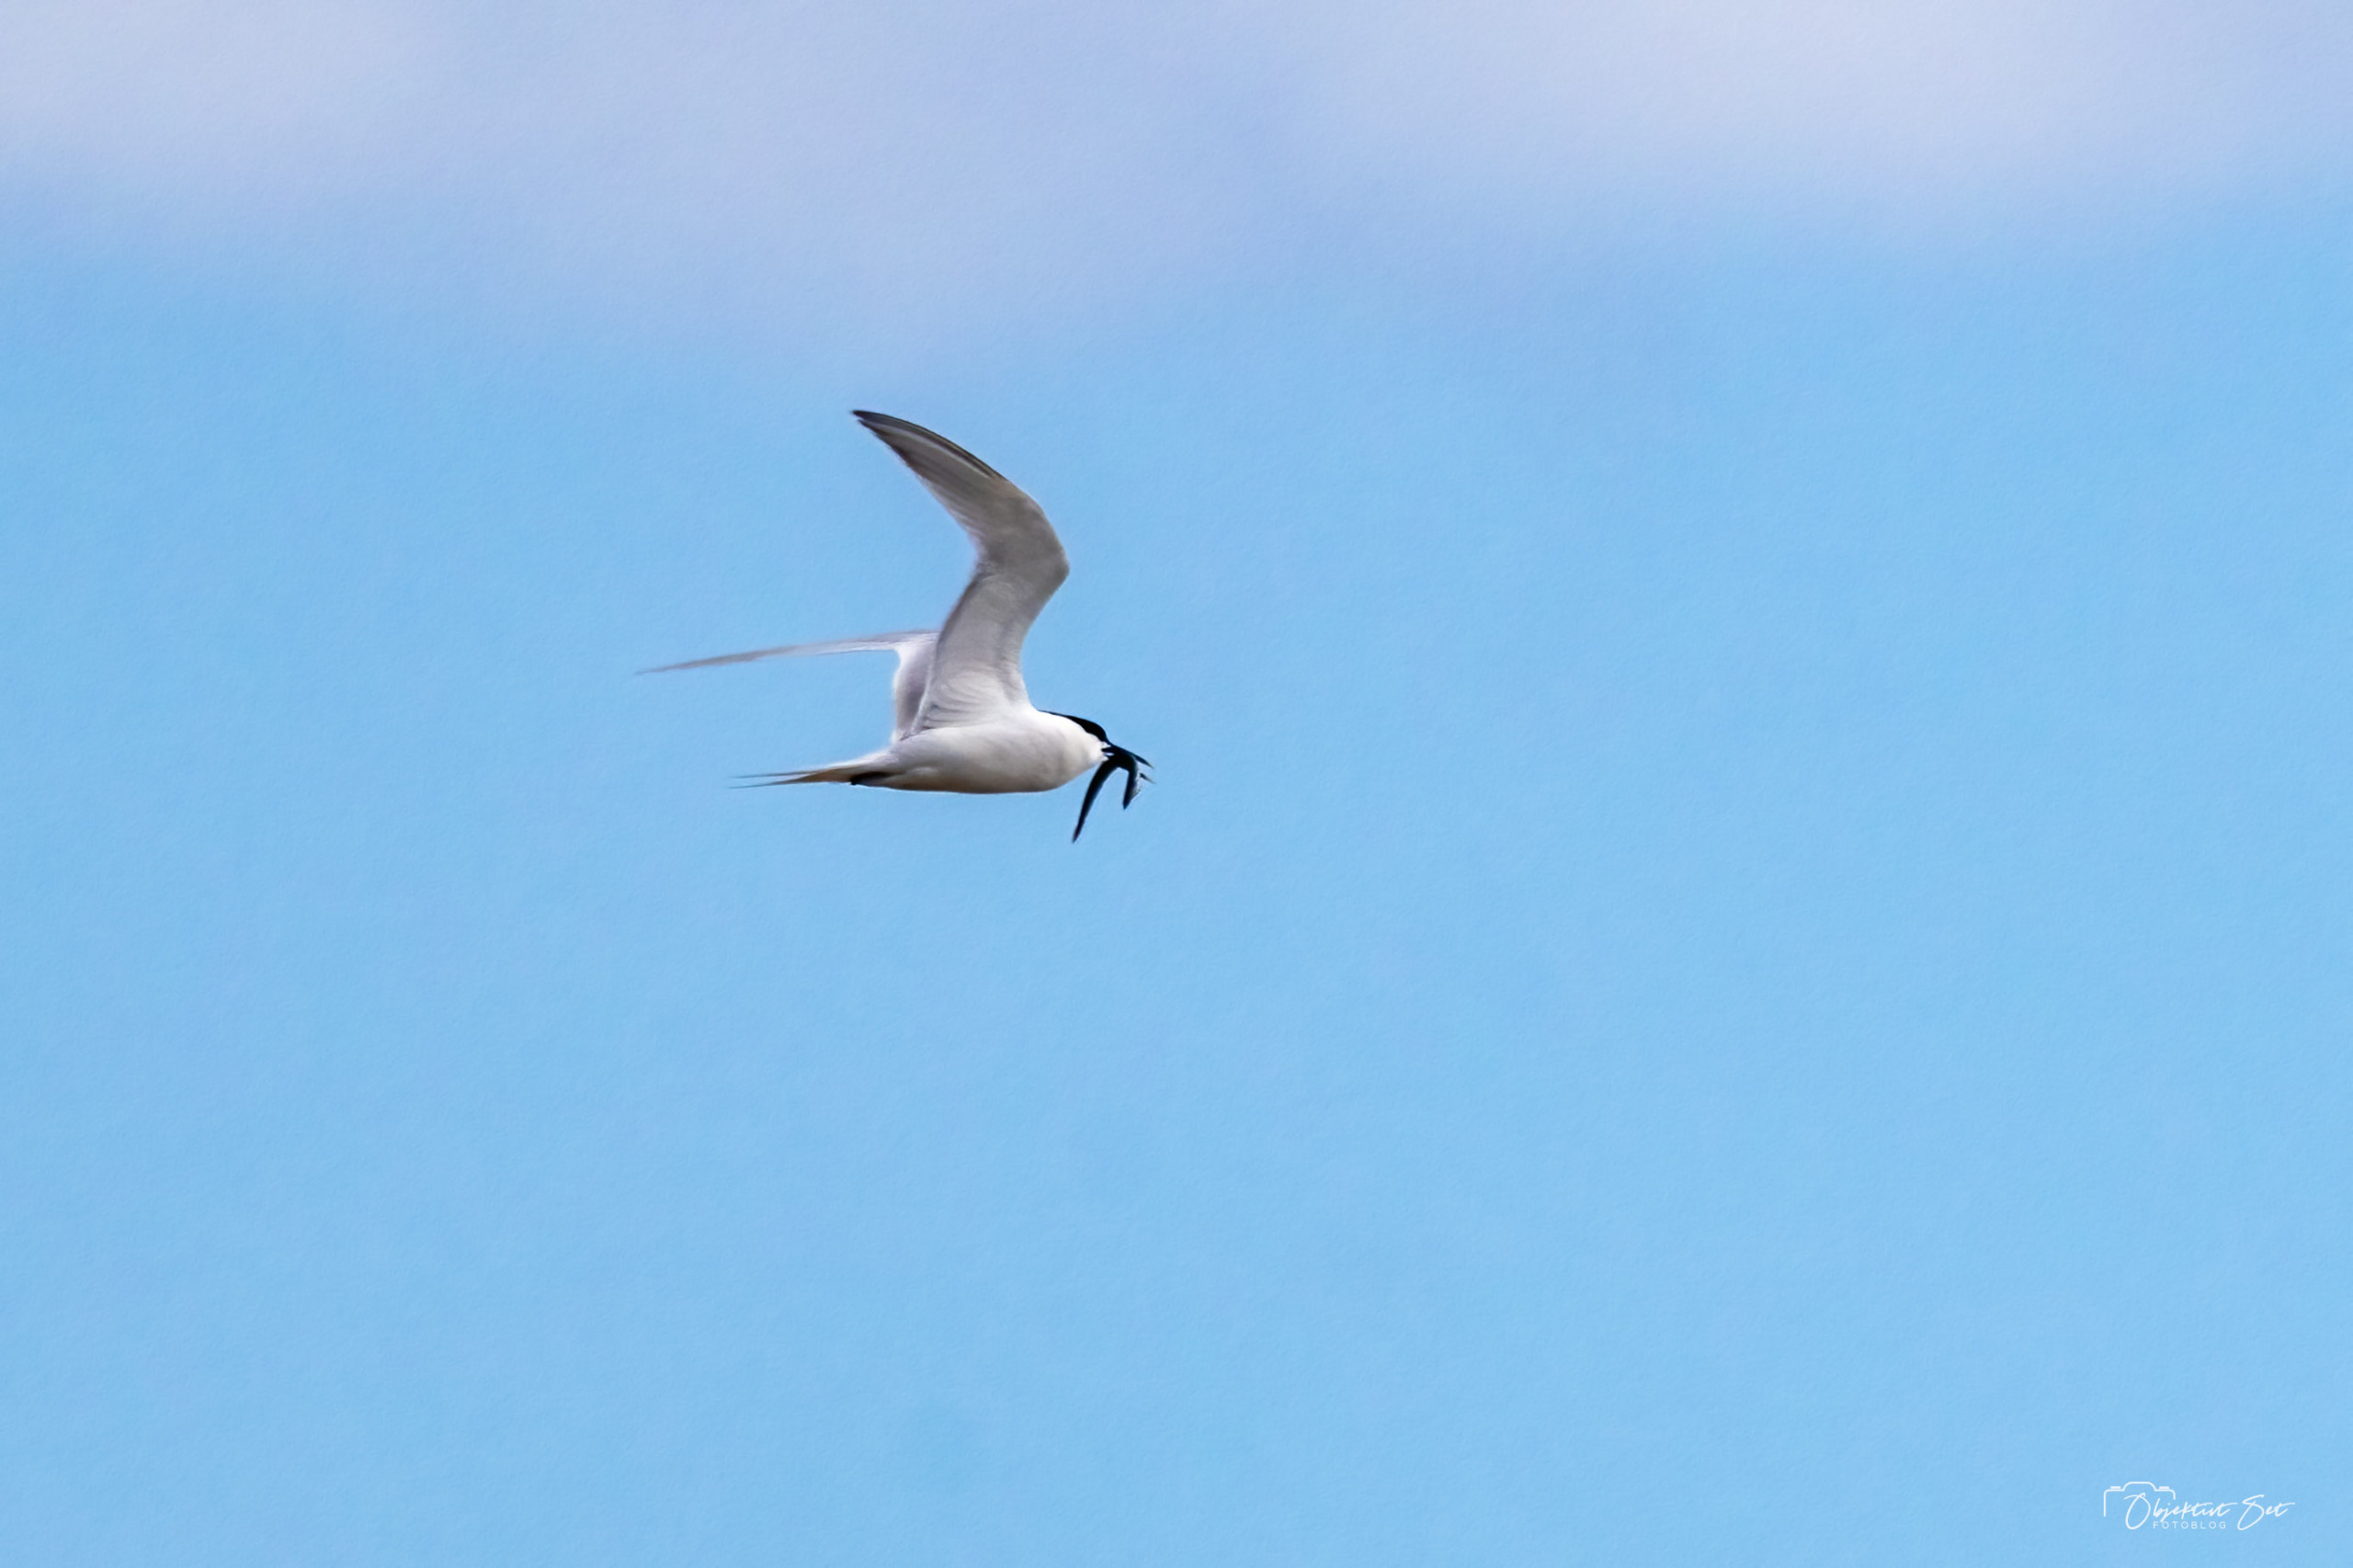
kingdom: Animalia
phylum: Chordata
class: Aves
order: Charadriiformes
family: Laridae
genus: Thalasseus
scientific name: Thalasseus sandvicensis
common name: Splitterne
